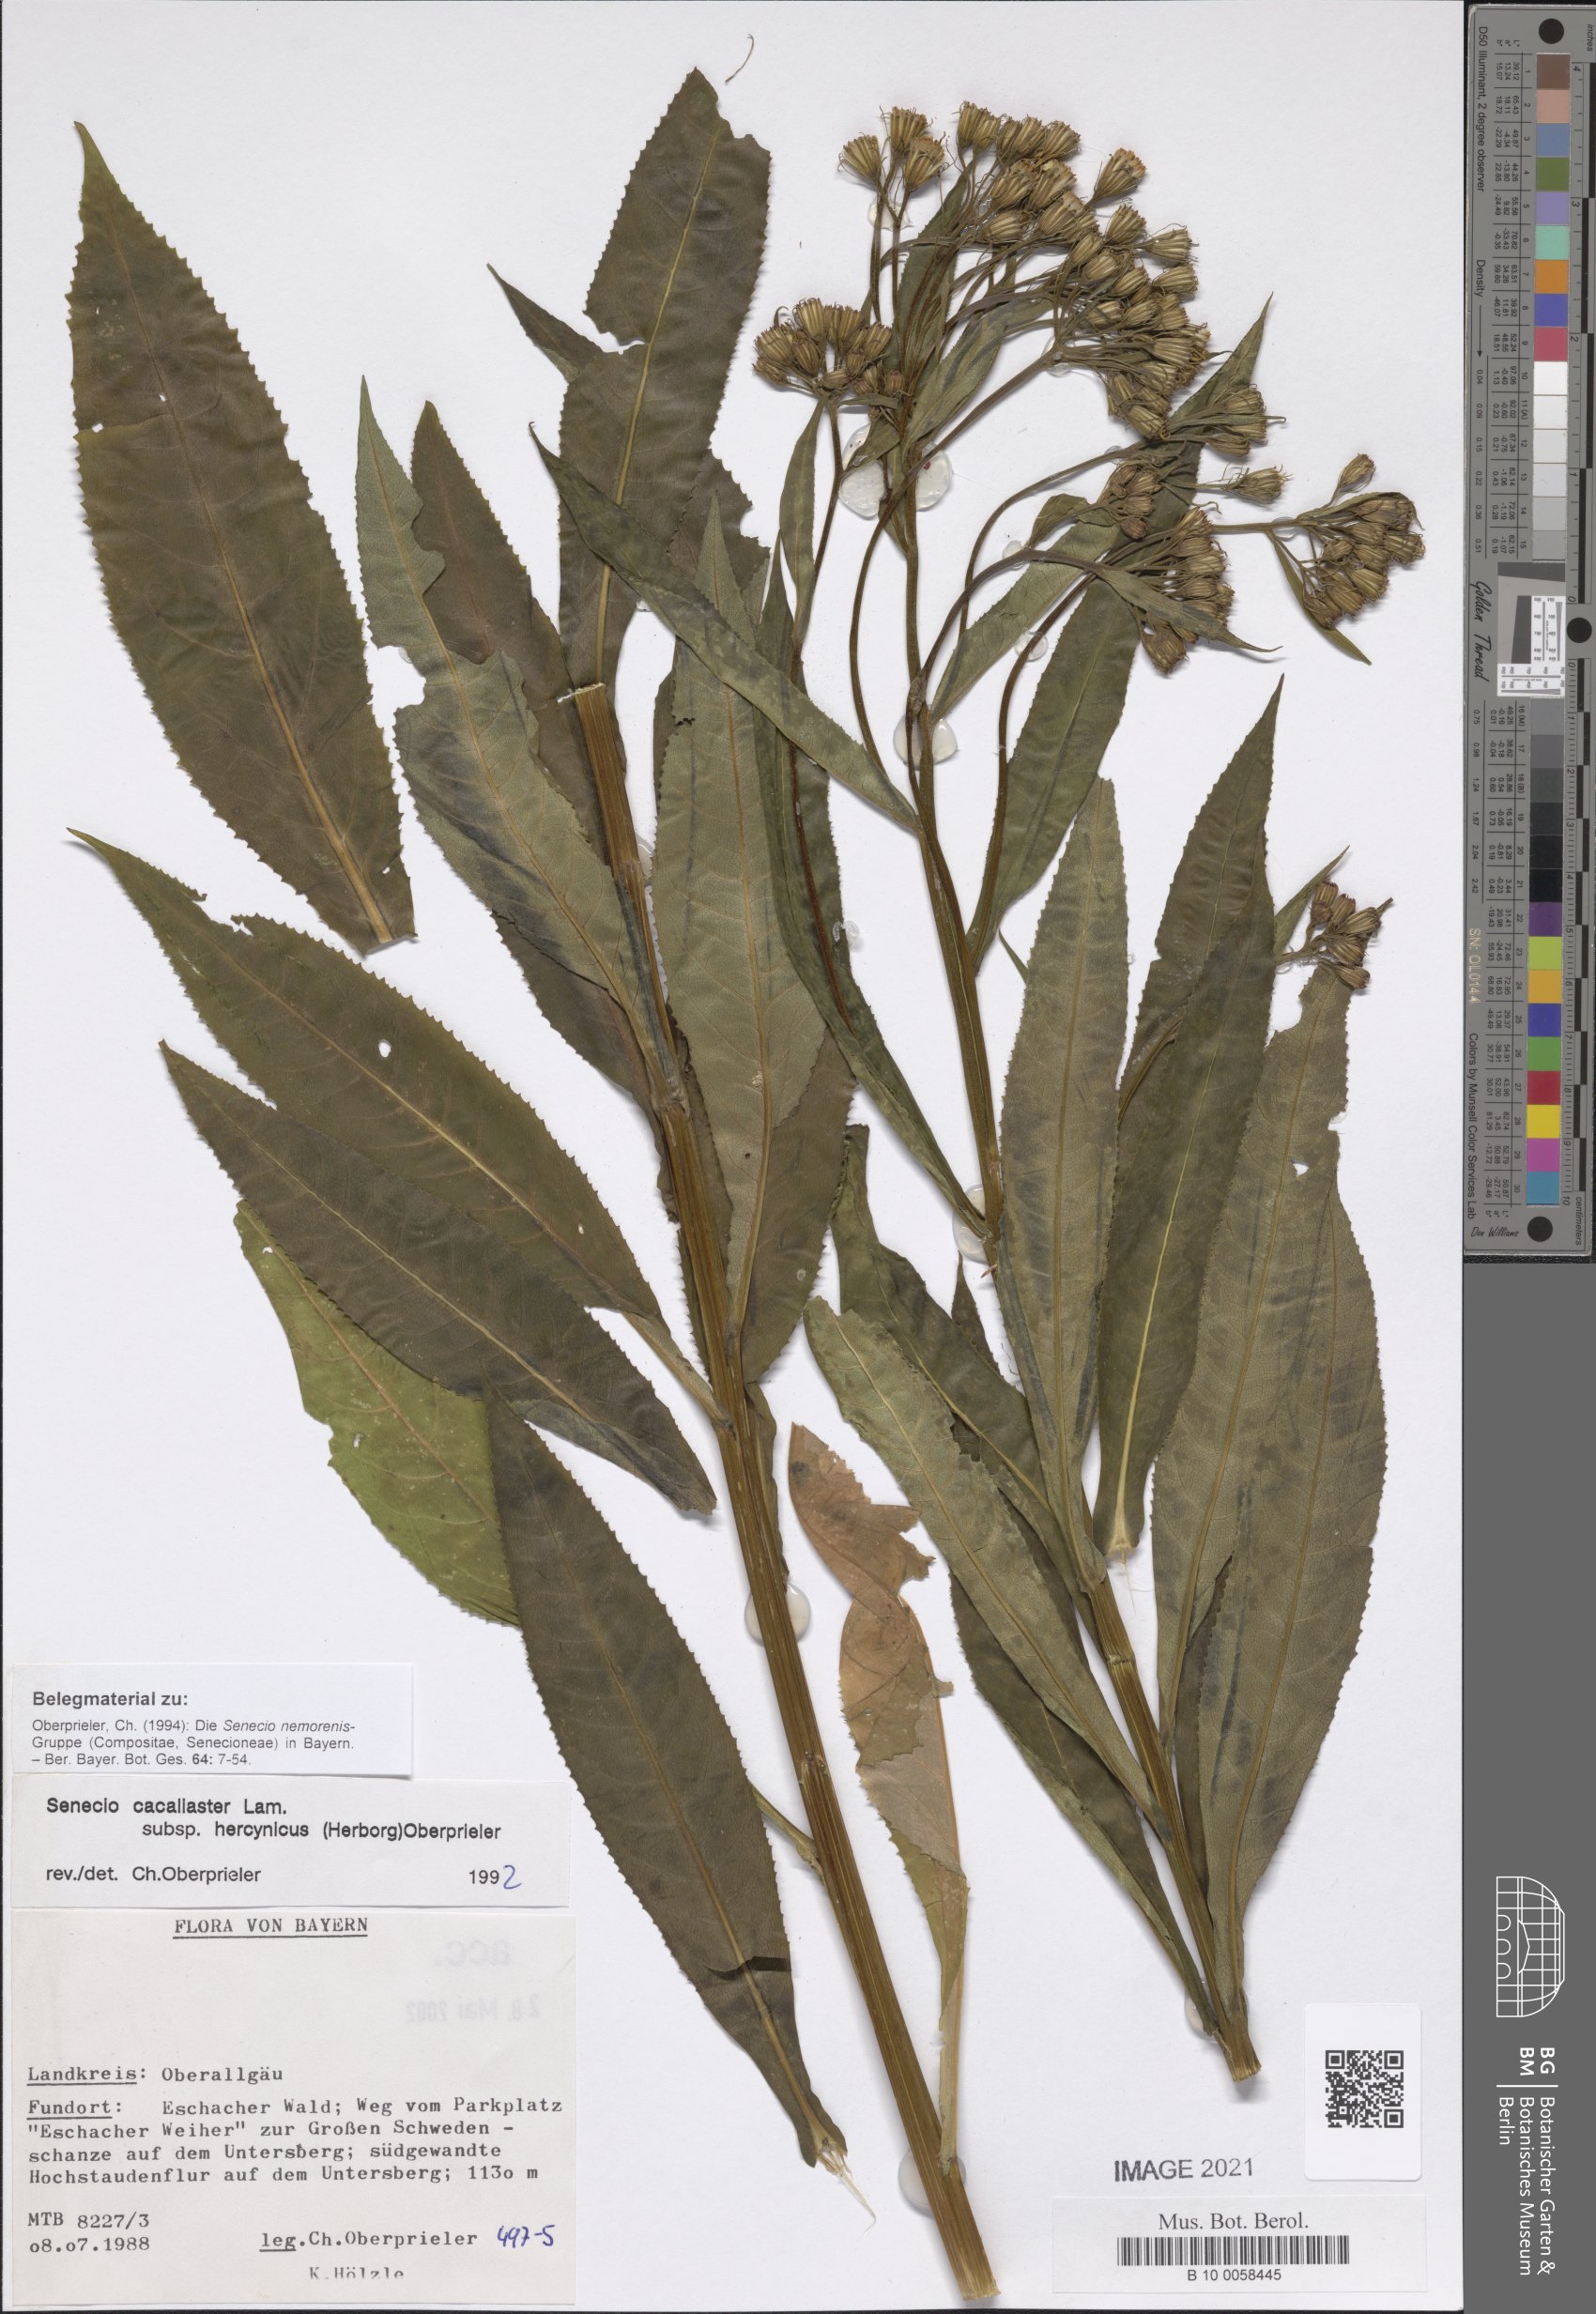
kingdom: Plantae
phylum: Tracheophyta
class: Magnoliopsida
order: Asterales
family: Asteraceae
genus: Senecio
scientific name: Senecio hercynicus
